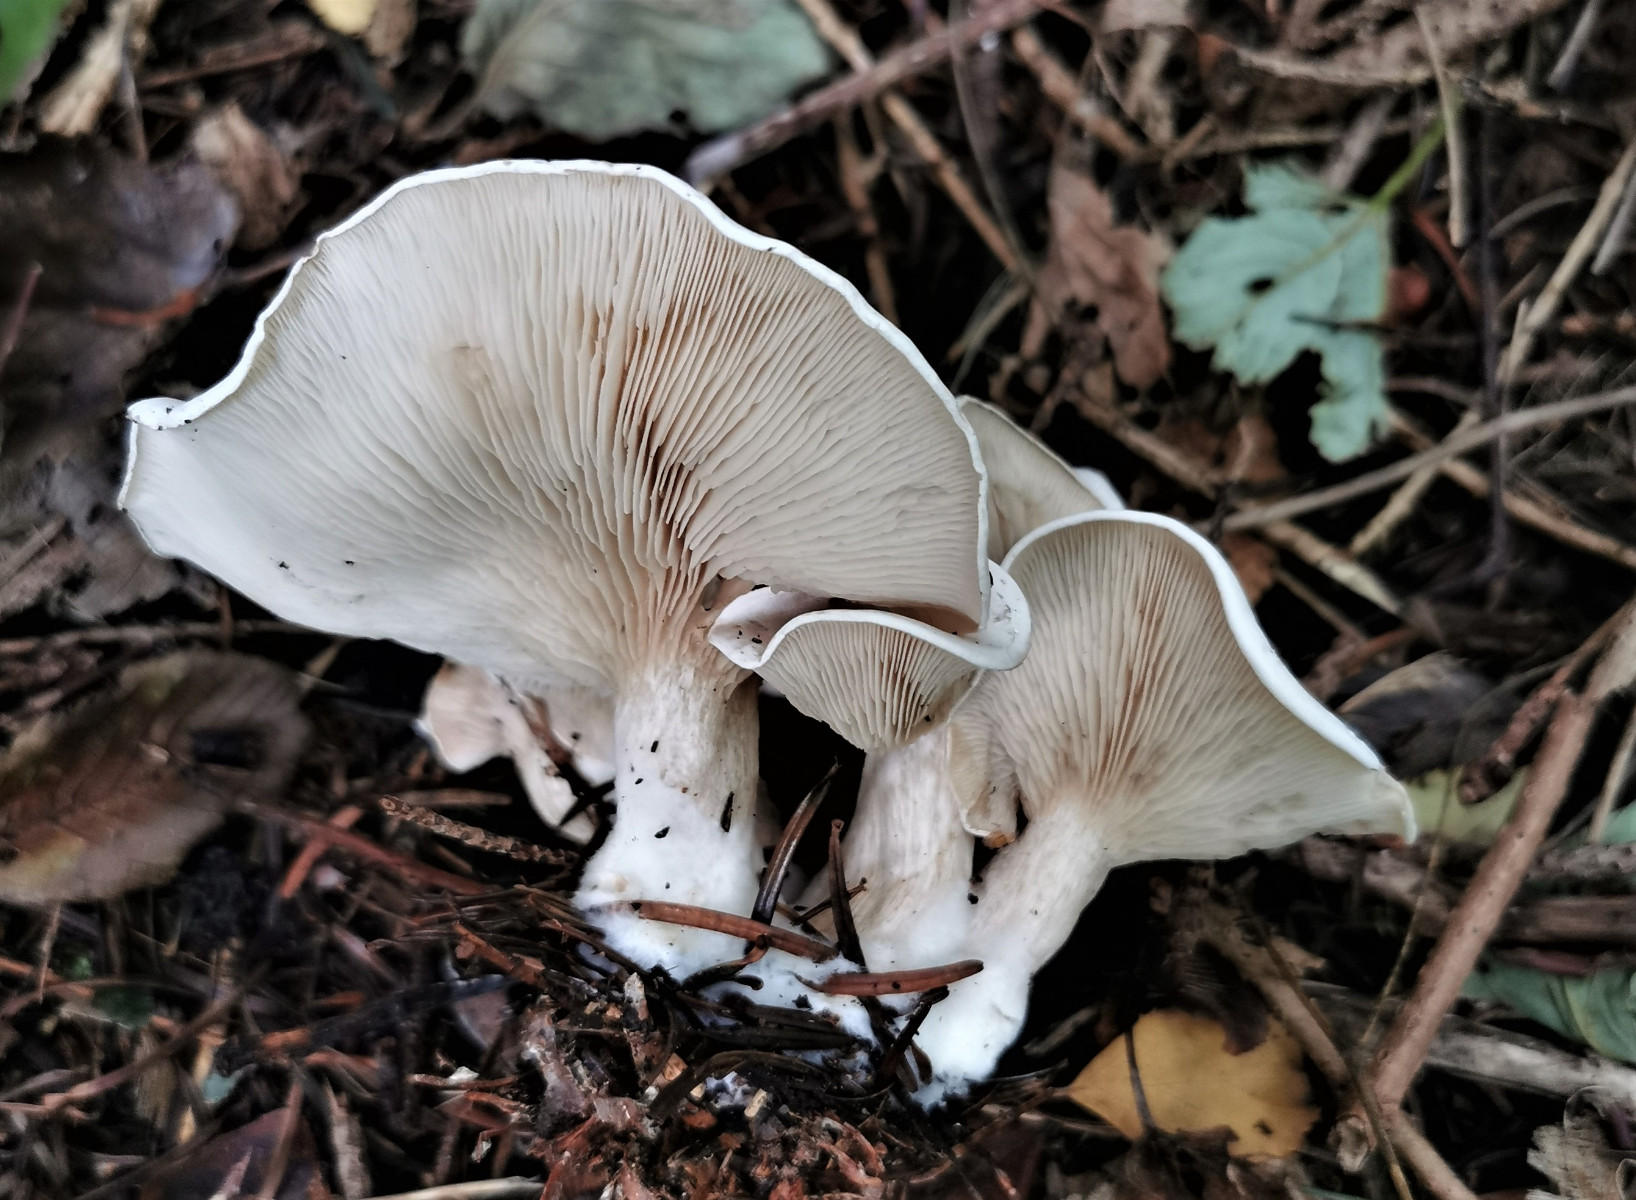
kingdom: Fungi
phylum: Basidiomycota
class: Agaricomycetes
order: Agaricales
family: Tricholomataceae
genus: Clitocybe
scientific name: Clitocybe
